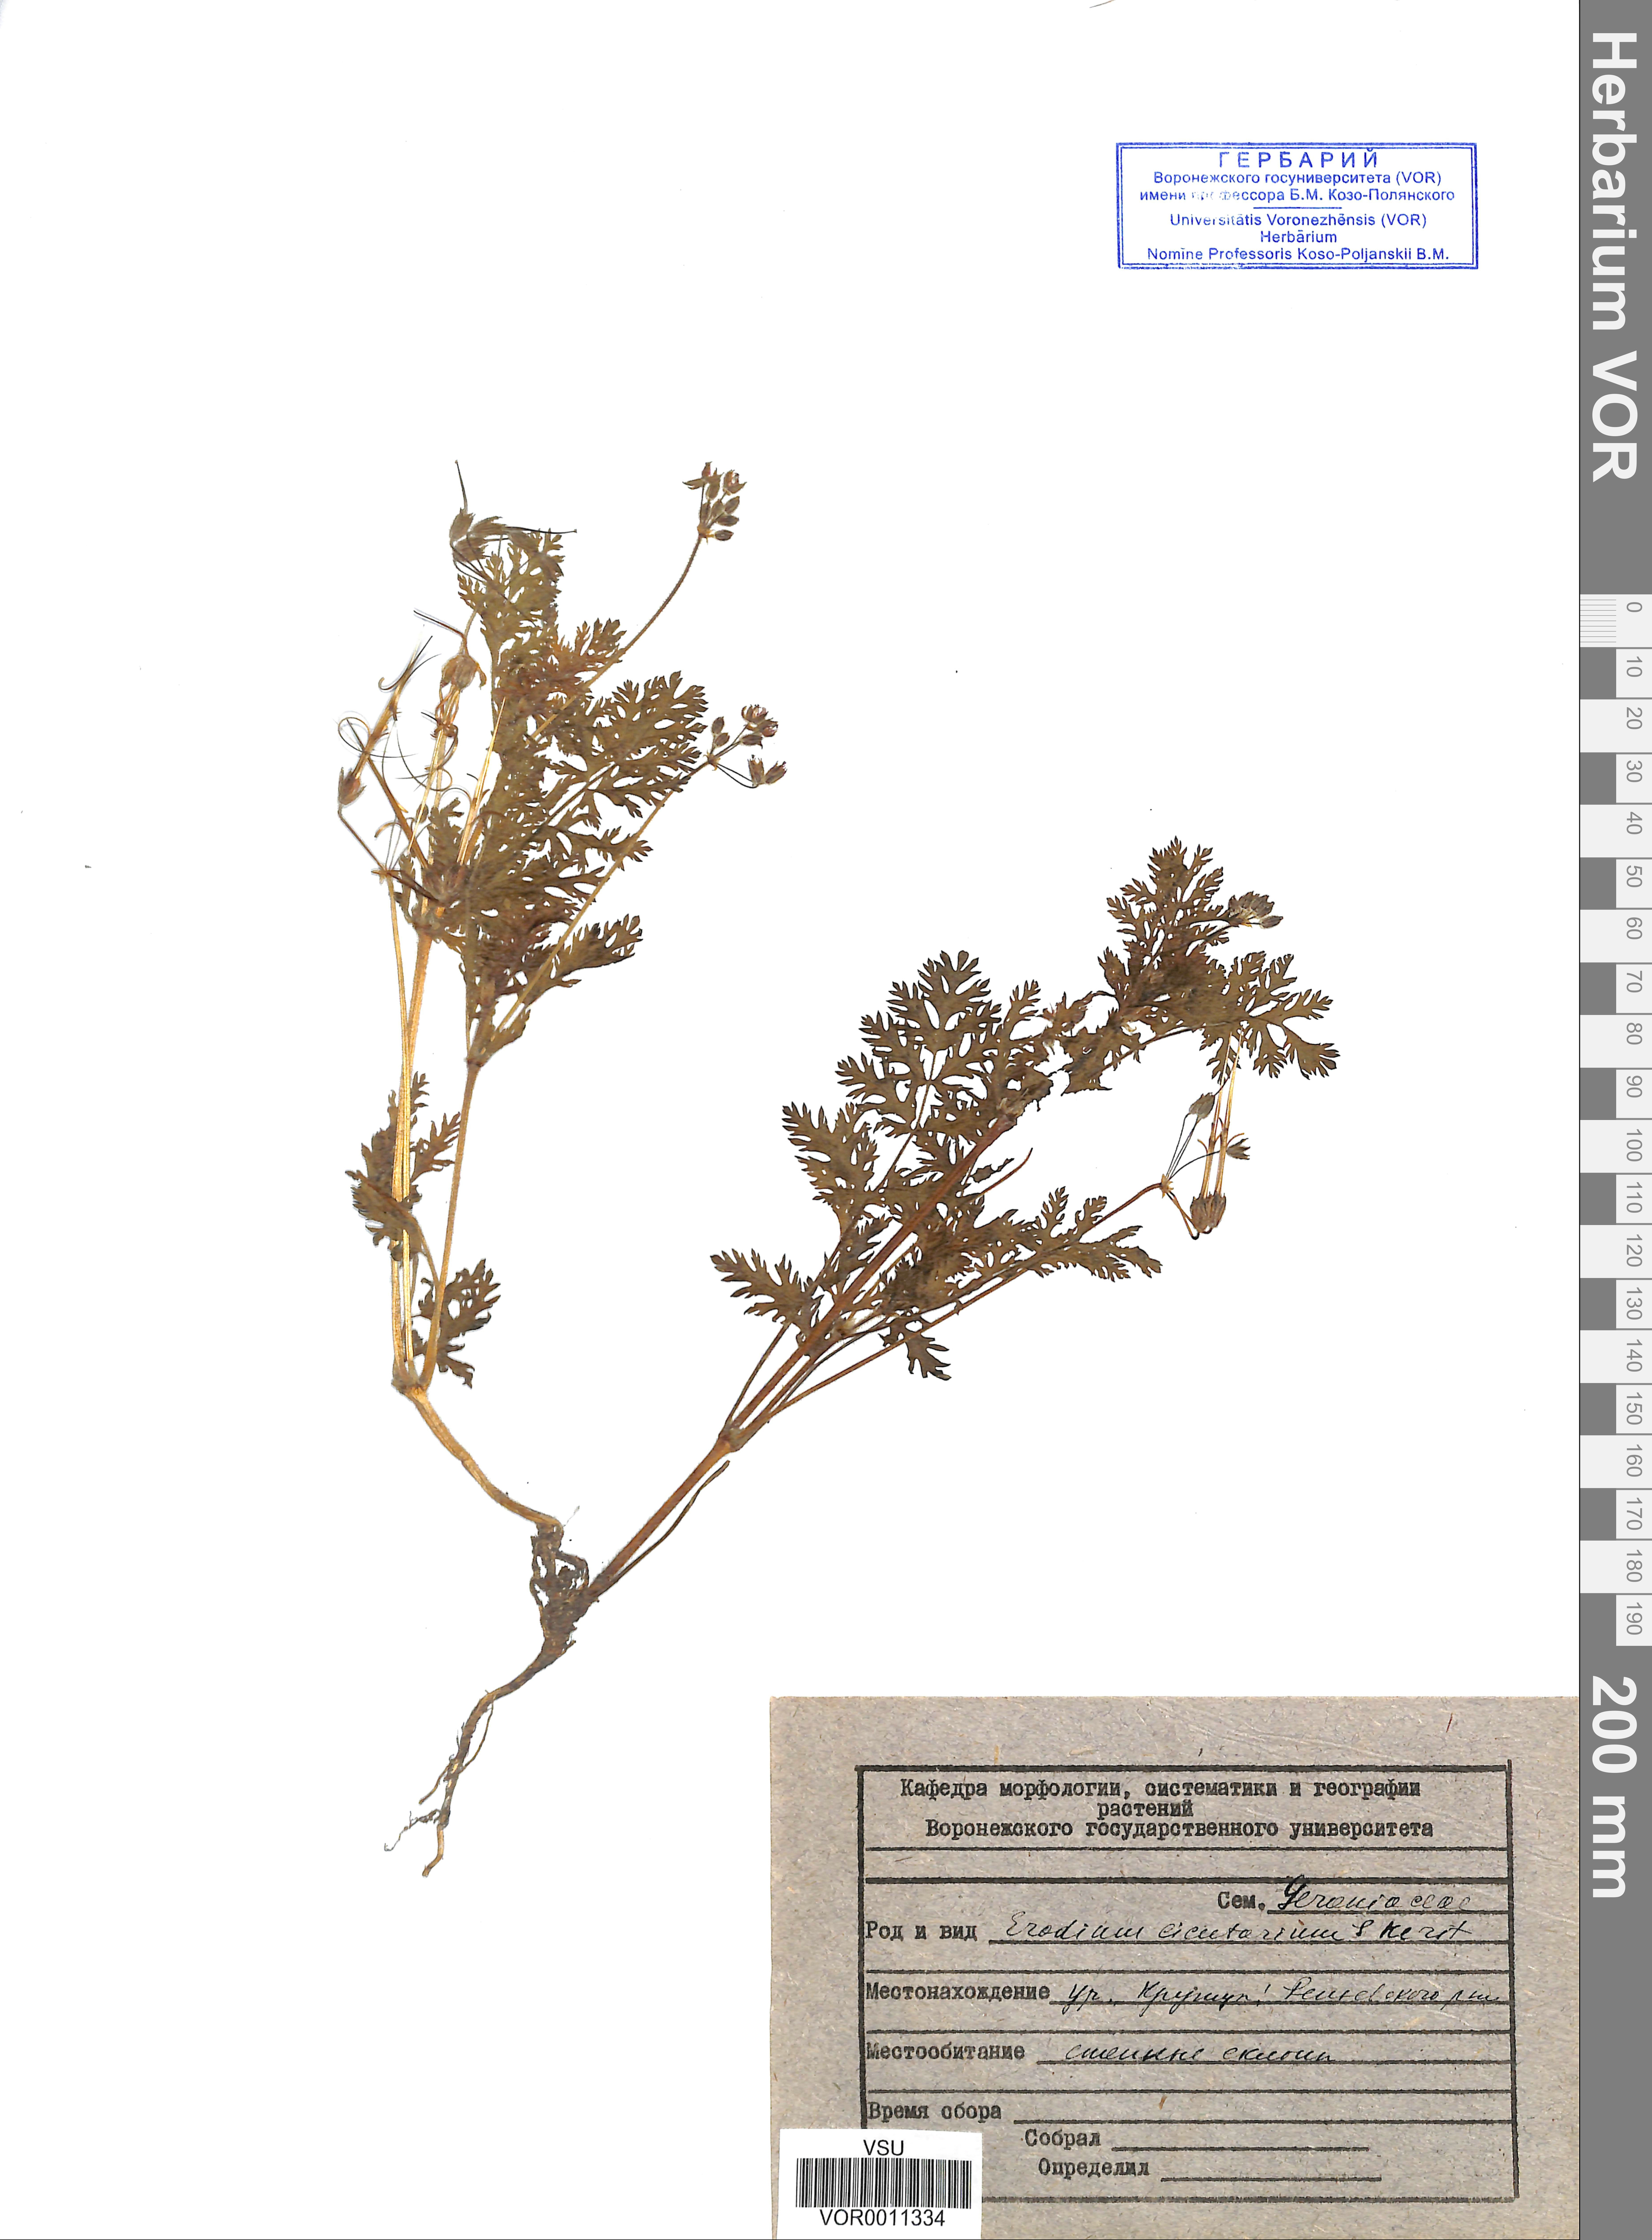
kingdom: Plantae
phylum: Tracheophyta
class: Magnoliopsida
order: Geraniales
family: Geraniaceae
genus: Erodium
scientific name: Erodium cicutarium
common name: Common stork's-bill
